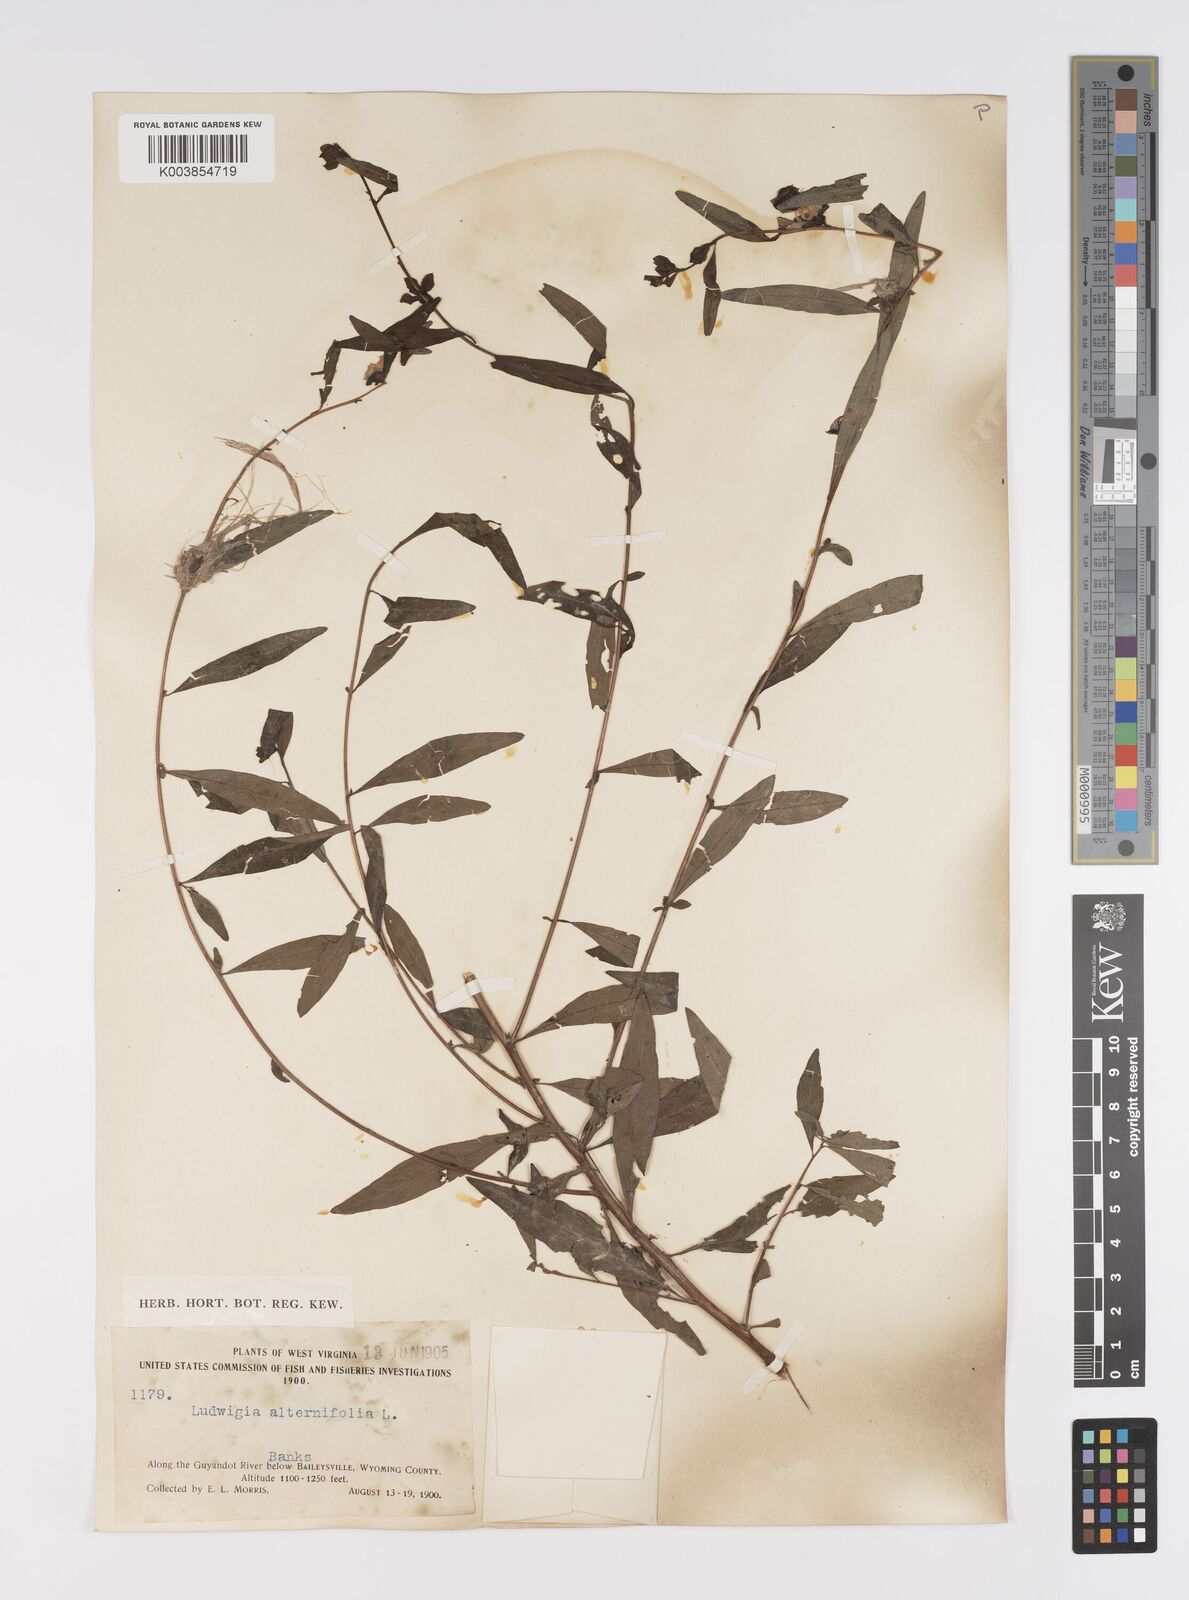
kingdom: Plantae
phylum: Tracheophyta
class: Magnoliopsida
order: Myrtales
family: Onagraceae
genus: Ludwigia
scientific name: Ludwigia alternifolia
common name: Rattlebox
